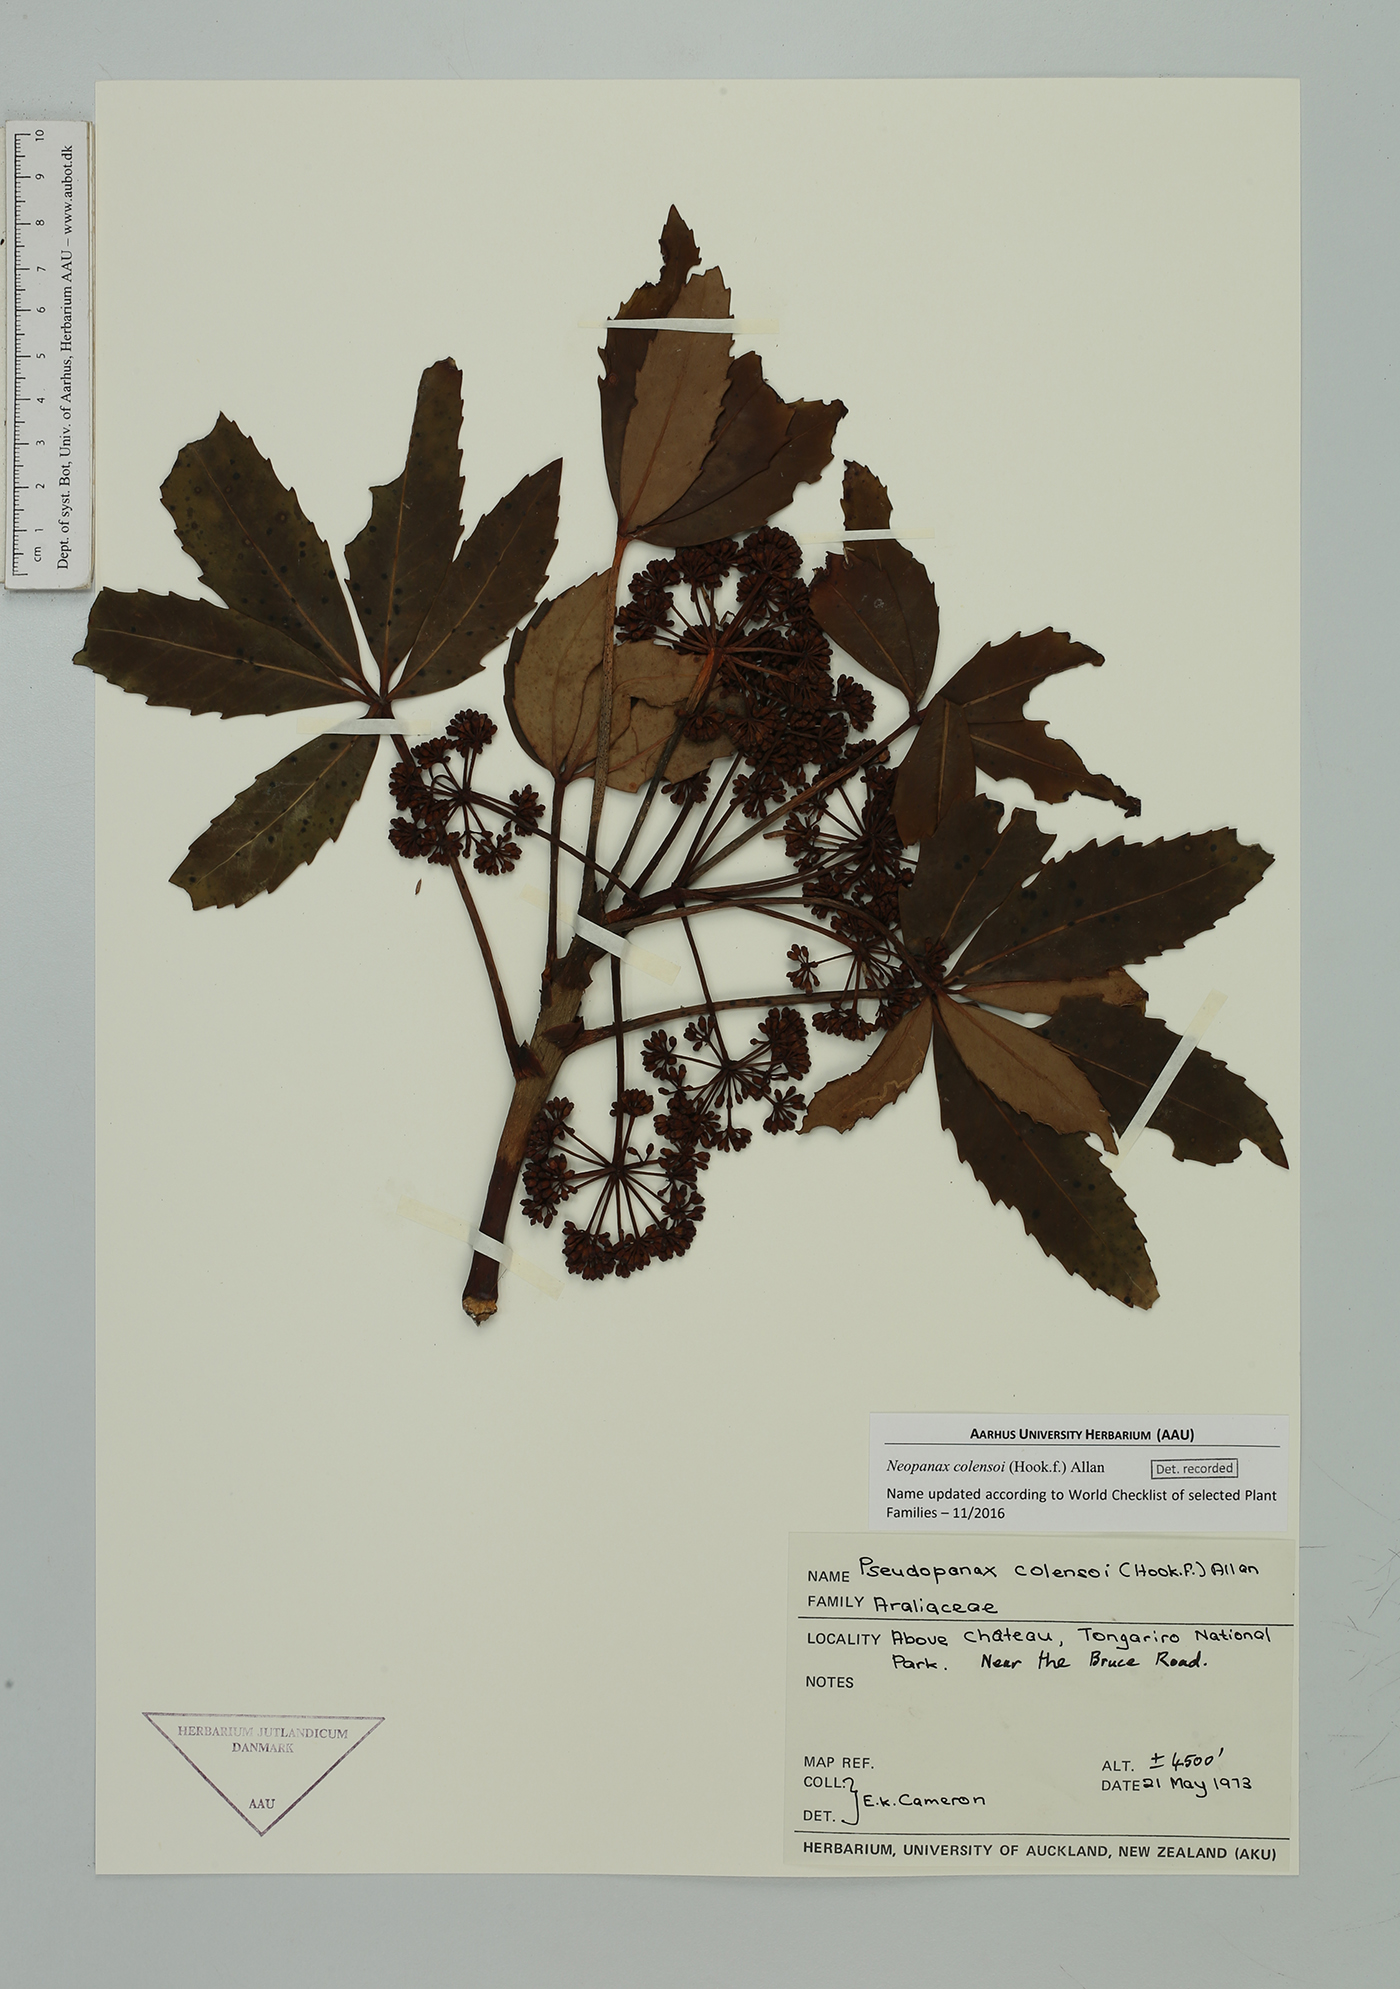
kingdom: Plantae
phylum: Tracheophyta
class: Magnoliopsida
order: Apiales
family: Araliaceae
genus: Neopanax
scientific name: Neopanax colensoi
